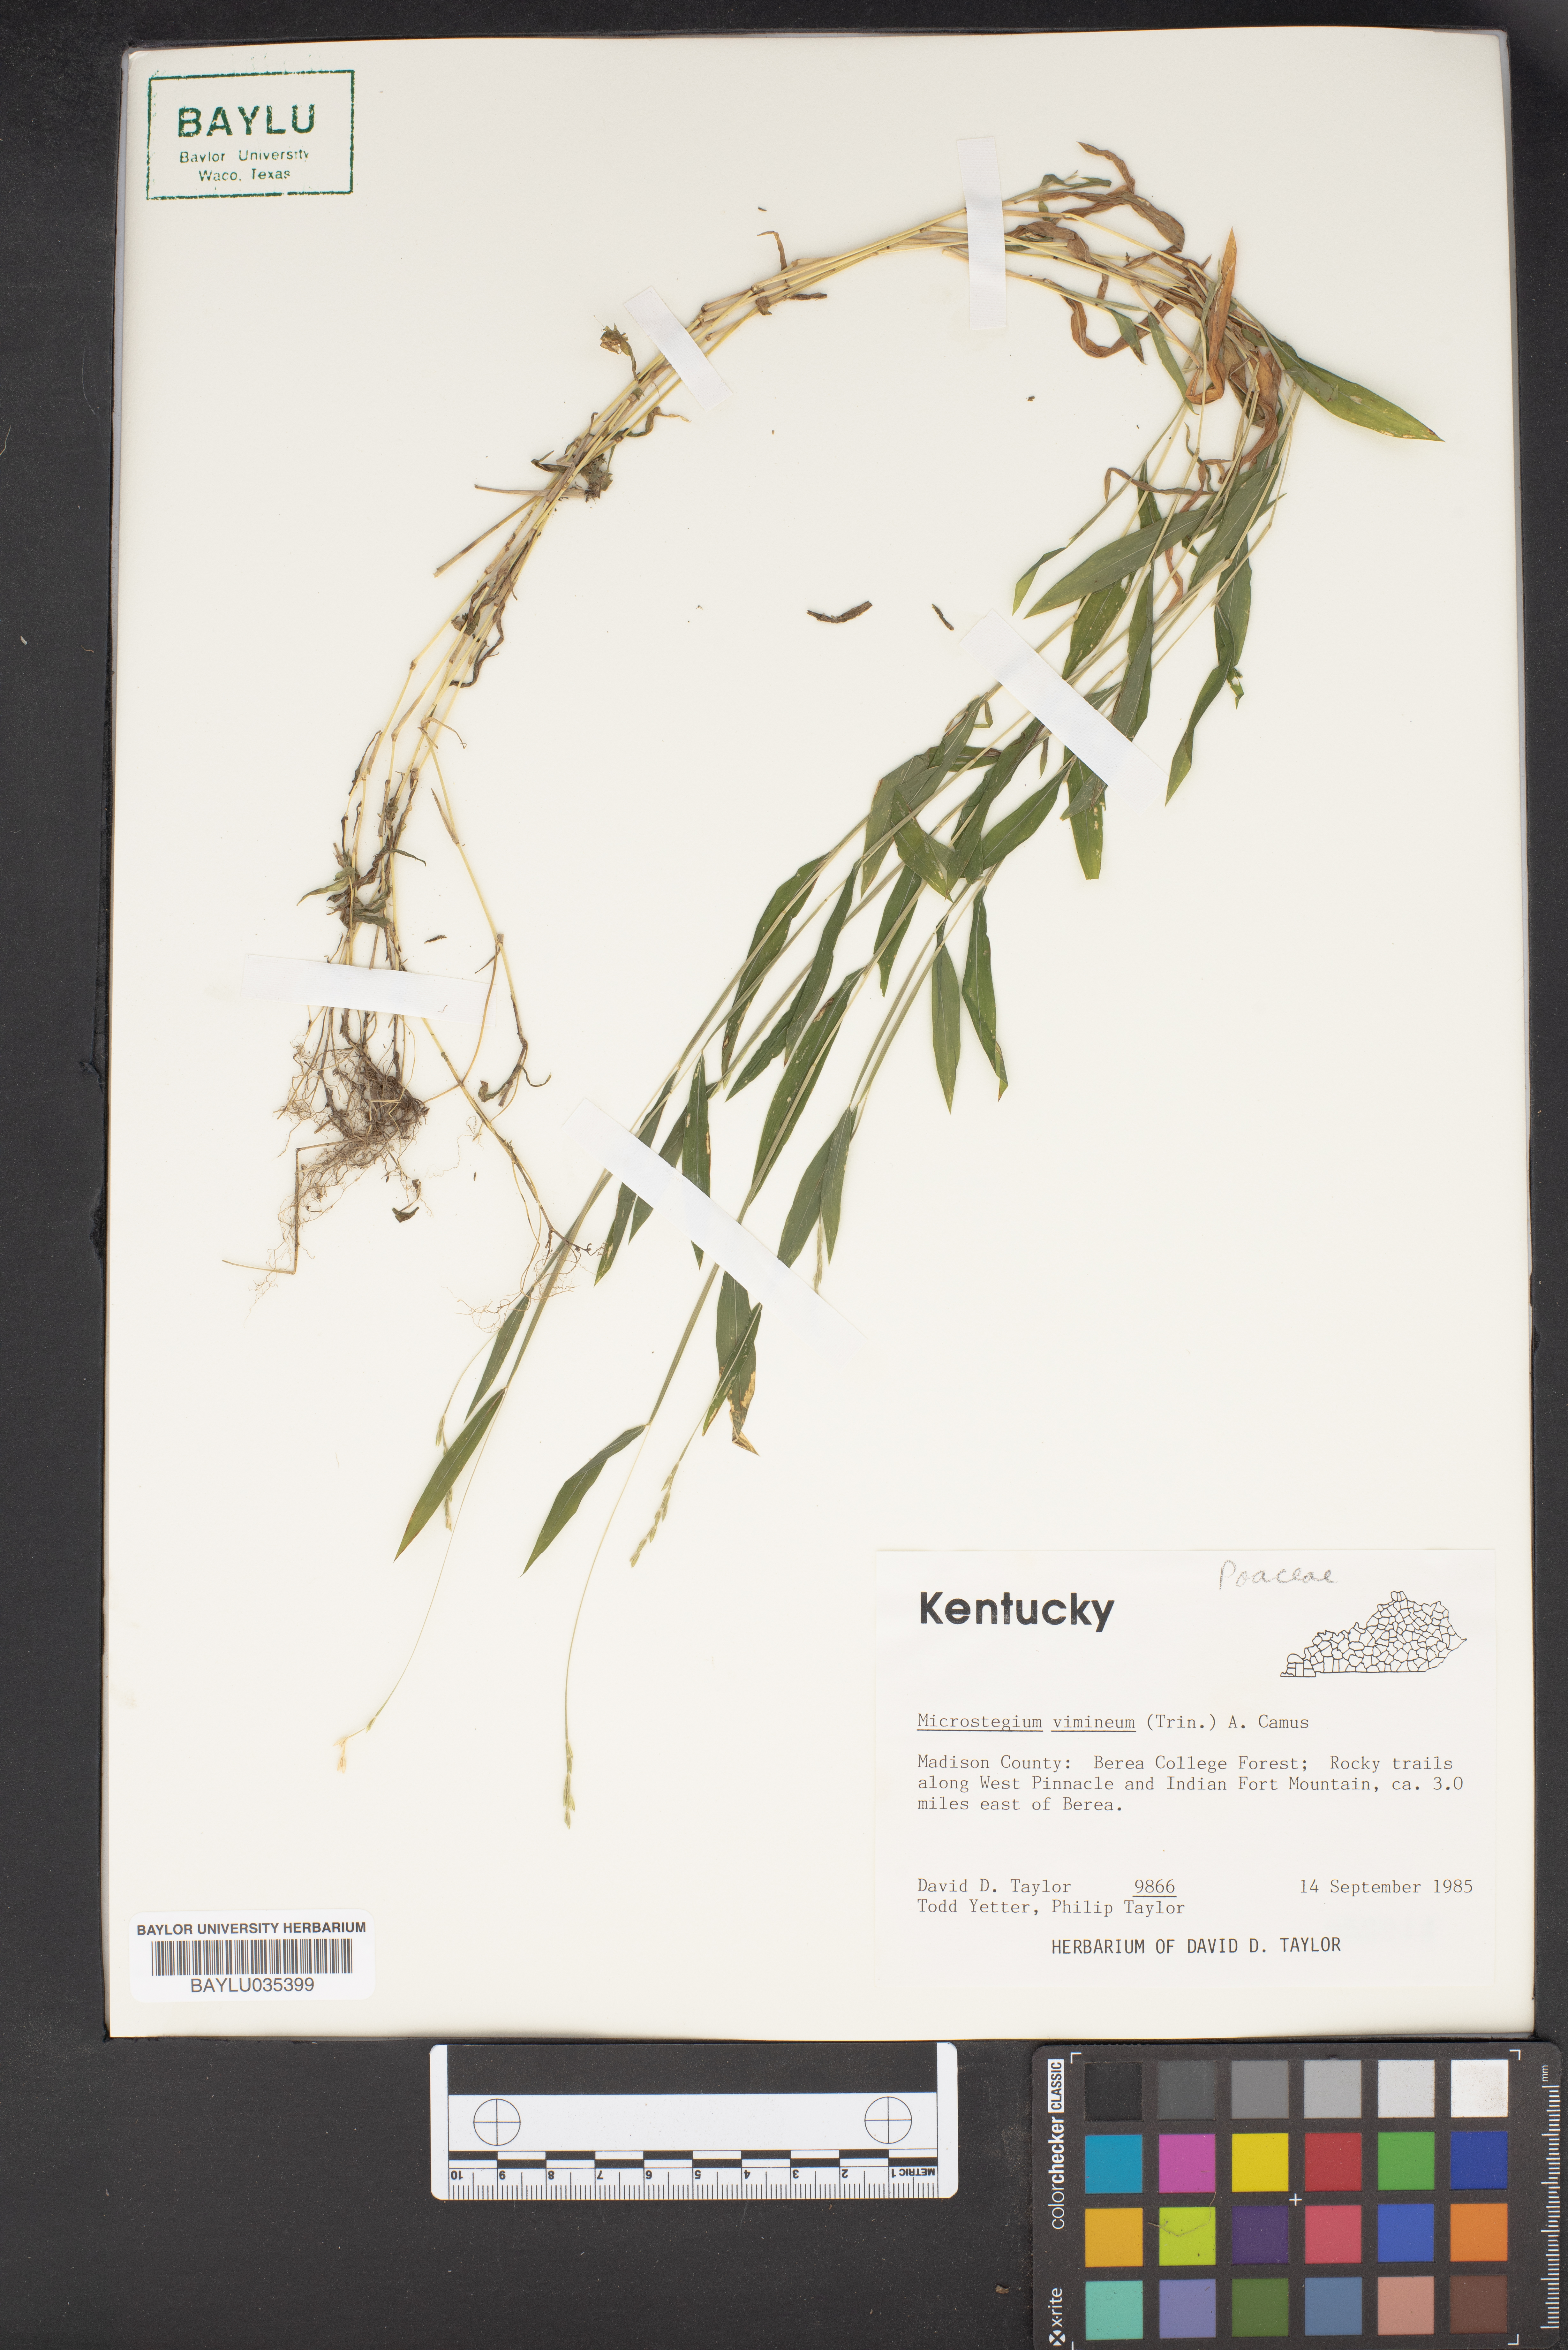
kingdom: Plantae
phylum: Tracheophyta
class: Liliopsida
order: Poales
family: Poaceae
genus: Microstegium
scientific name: Microstegium vimineum
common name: Japanese stiltgrass
